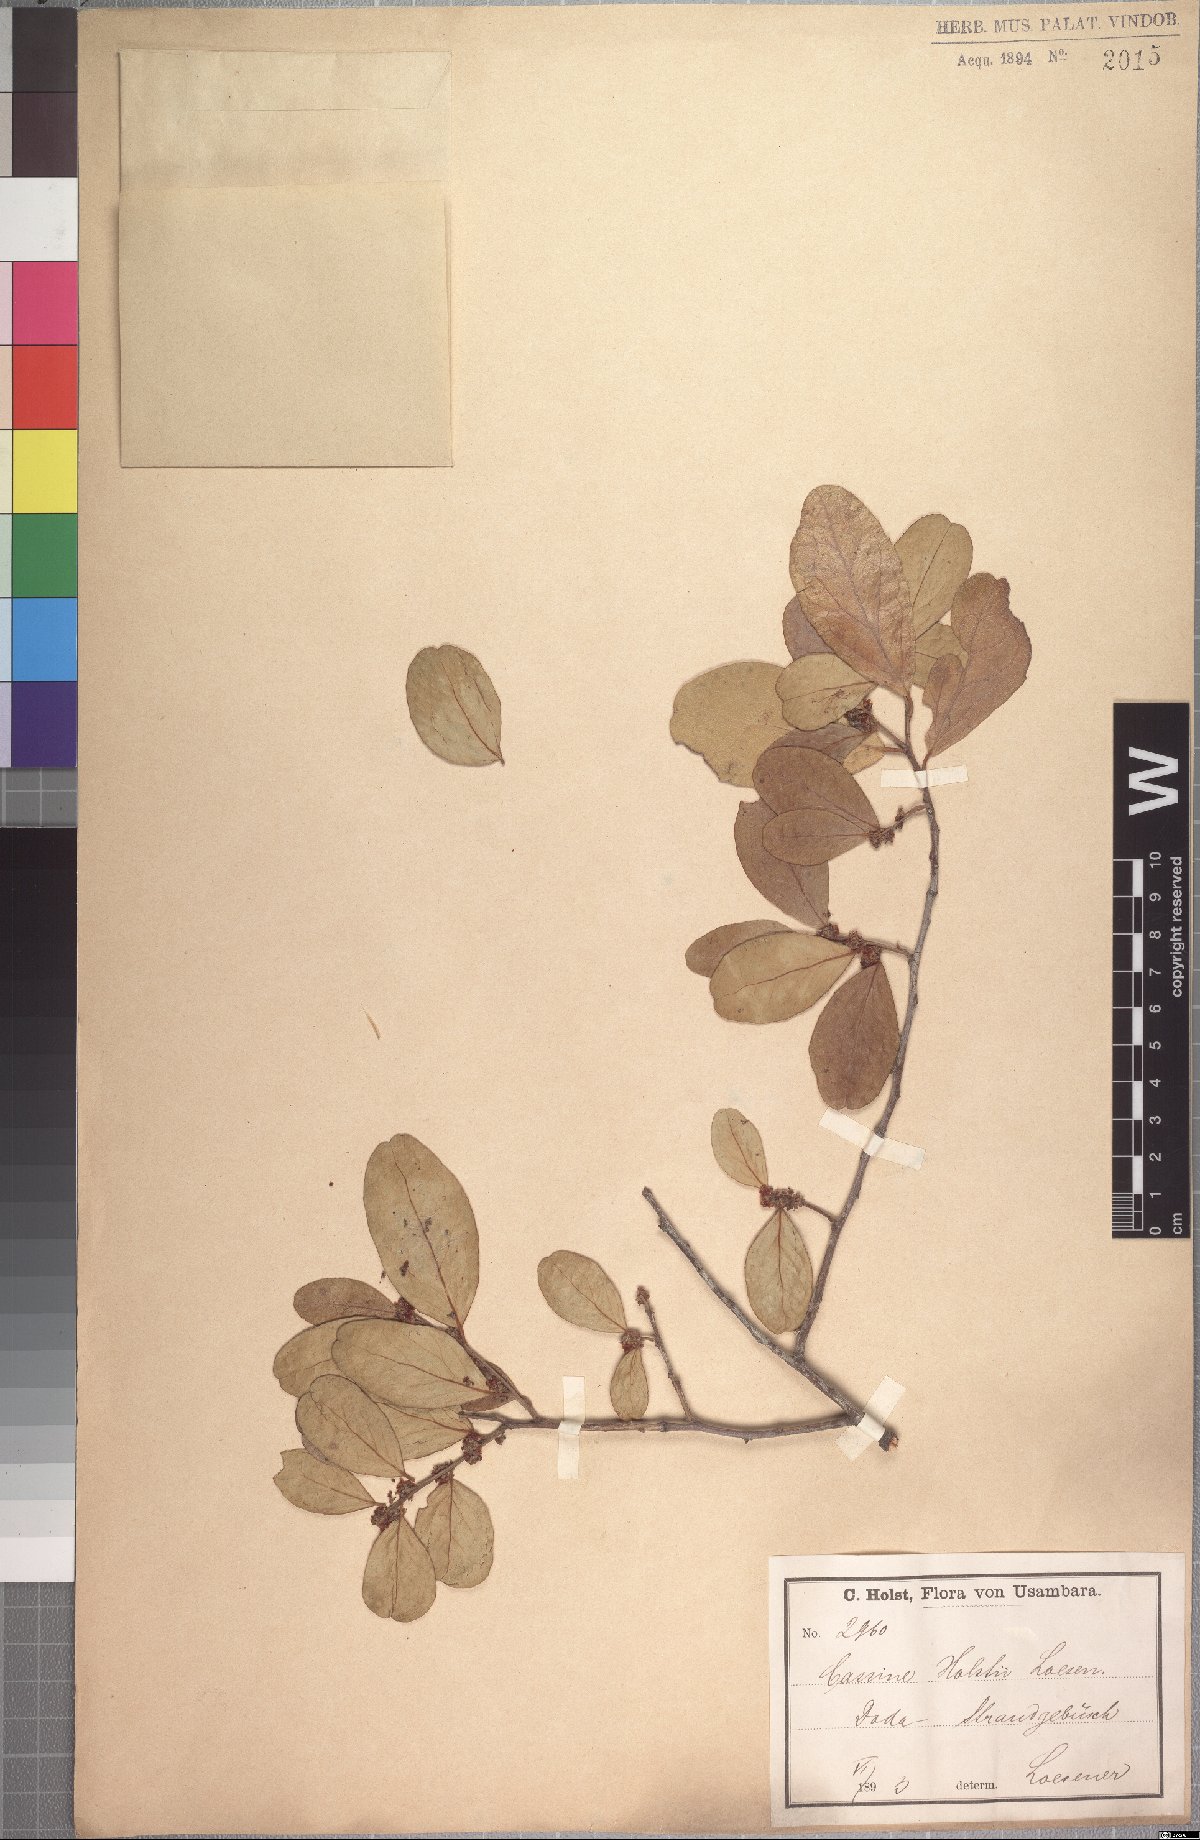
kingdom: Plantae
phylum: Tracheophyta
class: Magnoliopsida
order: Celastrales
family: Celastraceae
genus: Mystroxylon
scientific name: Mystroxylon aethiopicum
